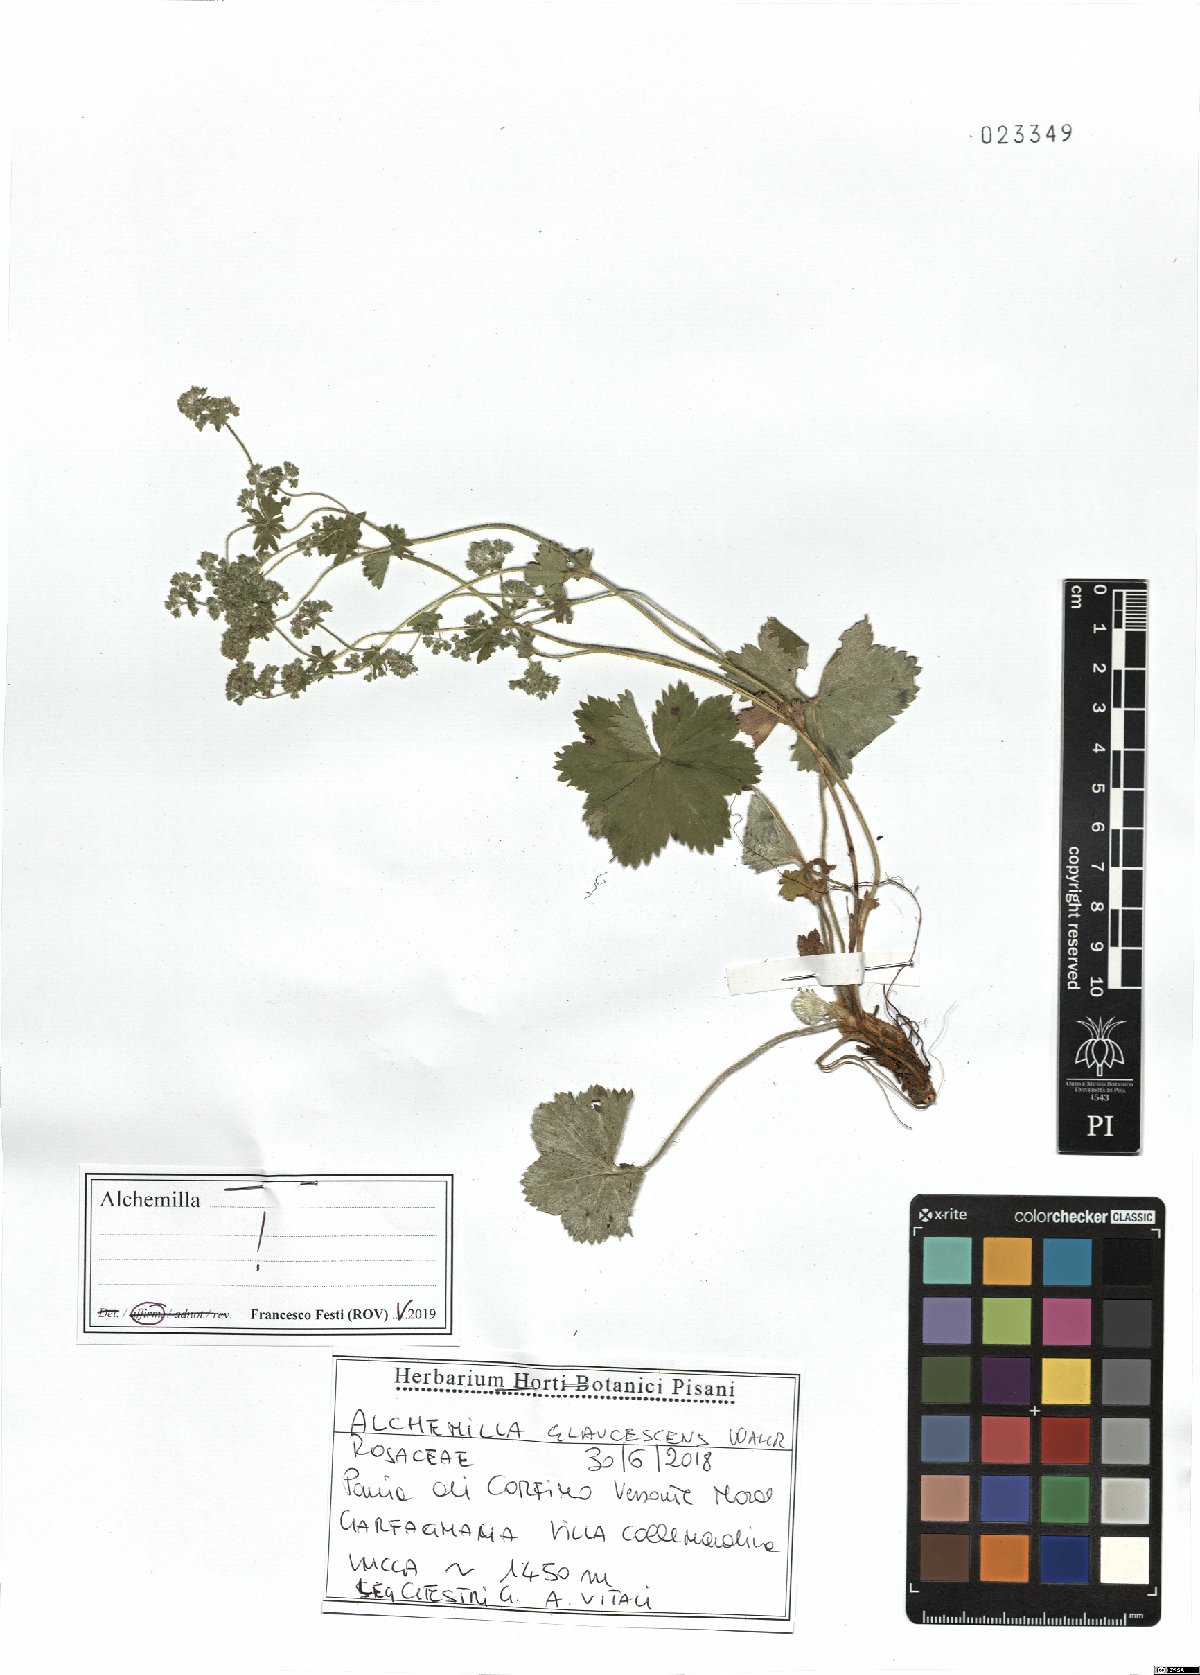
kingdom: Plantae
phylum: Tracheophyta
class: Magnoliopsida
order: Rosales
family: Rosaceae
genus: Alchemilla
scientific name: Alchemilla glaucescens
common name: Silky lady's mantle
